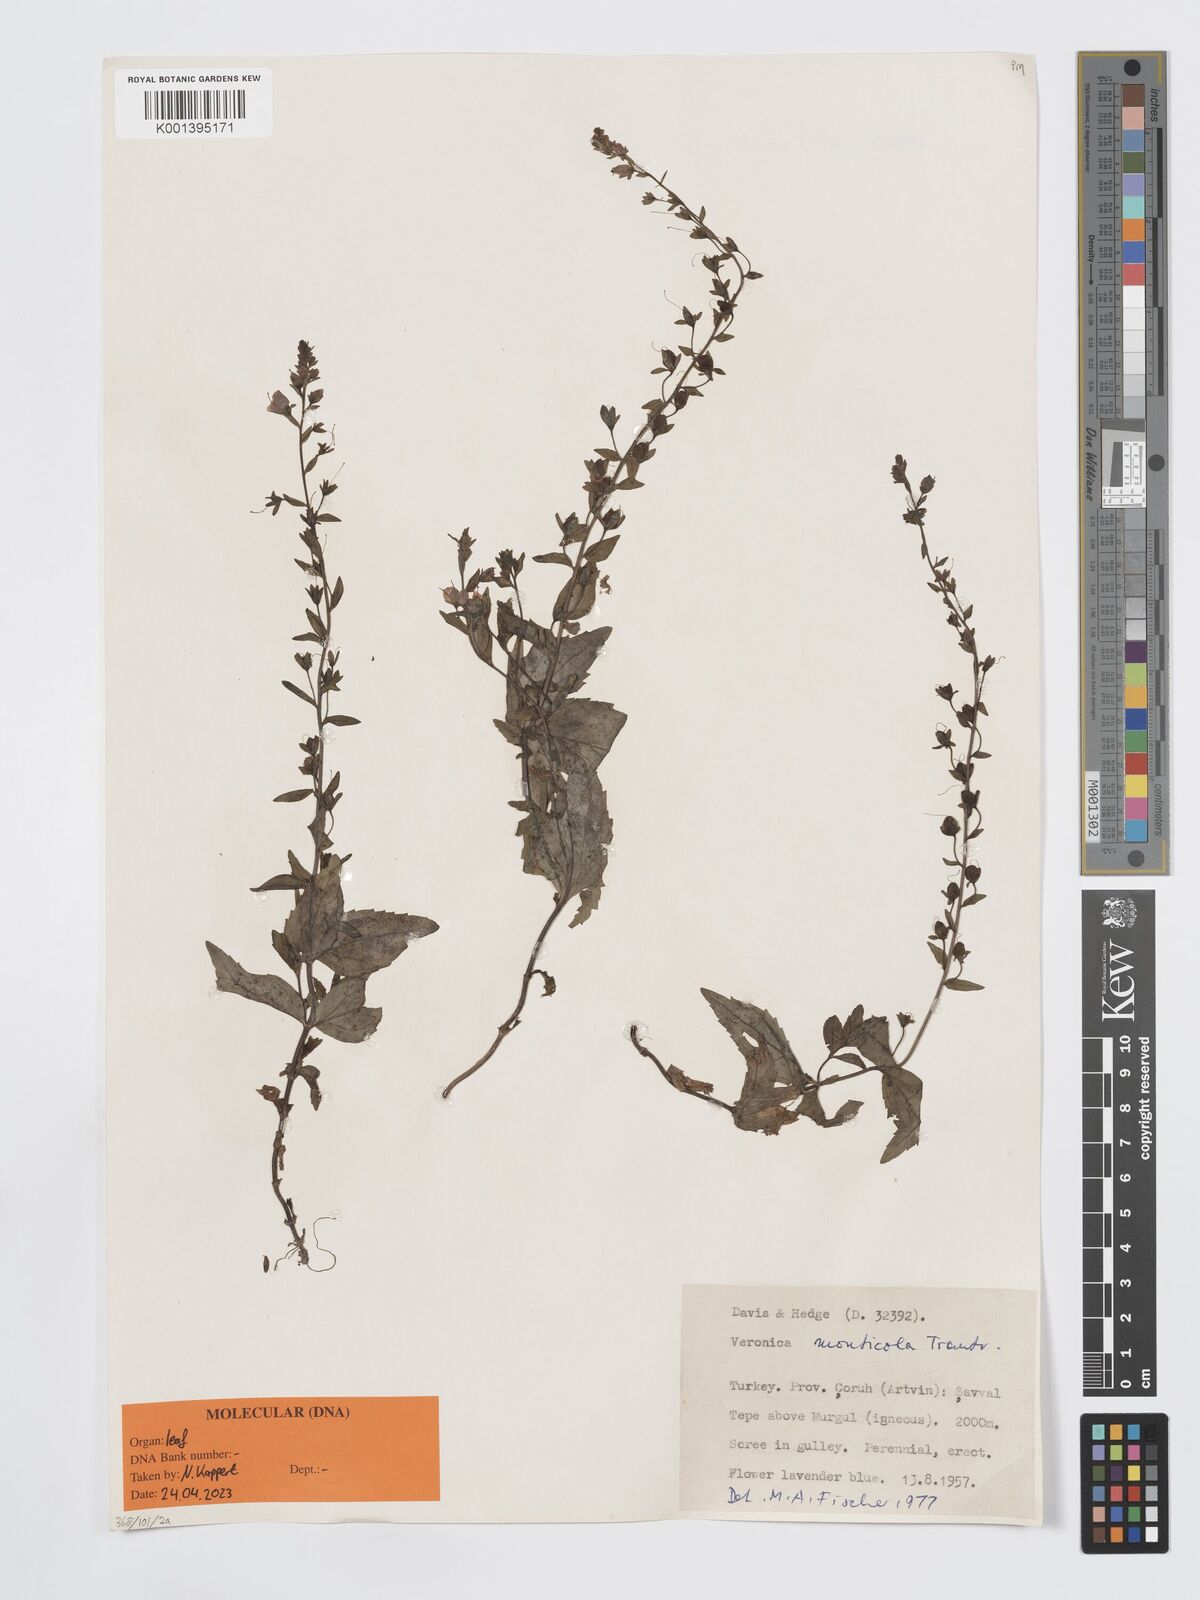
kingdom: Plantae
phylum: Tracheophyta
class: Magnoliopsida
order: Lamiales
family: Plantaginaceae
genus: Veronica
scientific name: Veronica monticola
